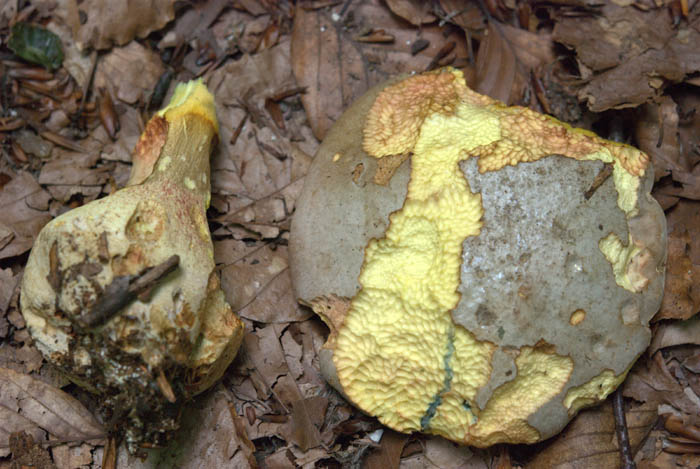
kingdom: Fungi
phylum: Basidiomycota
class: Agaricomycetes
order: Boletales
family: Boletaceae
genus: Butyriboletus
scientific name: Butyriboletus fechtneri
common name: sølvskinnende rørhat
